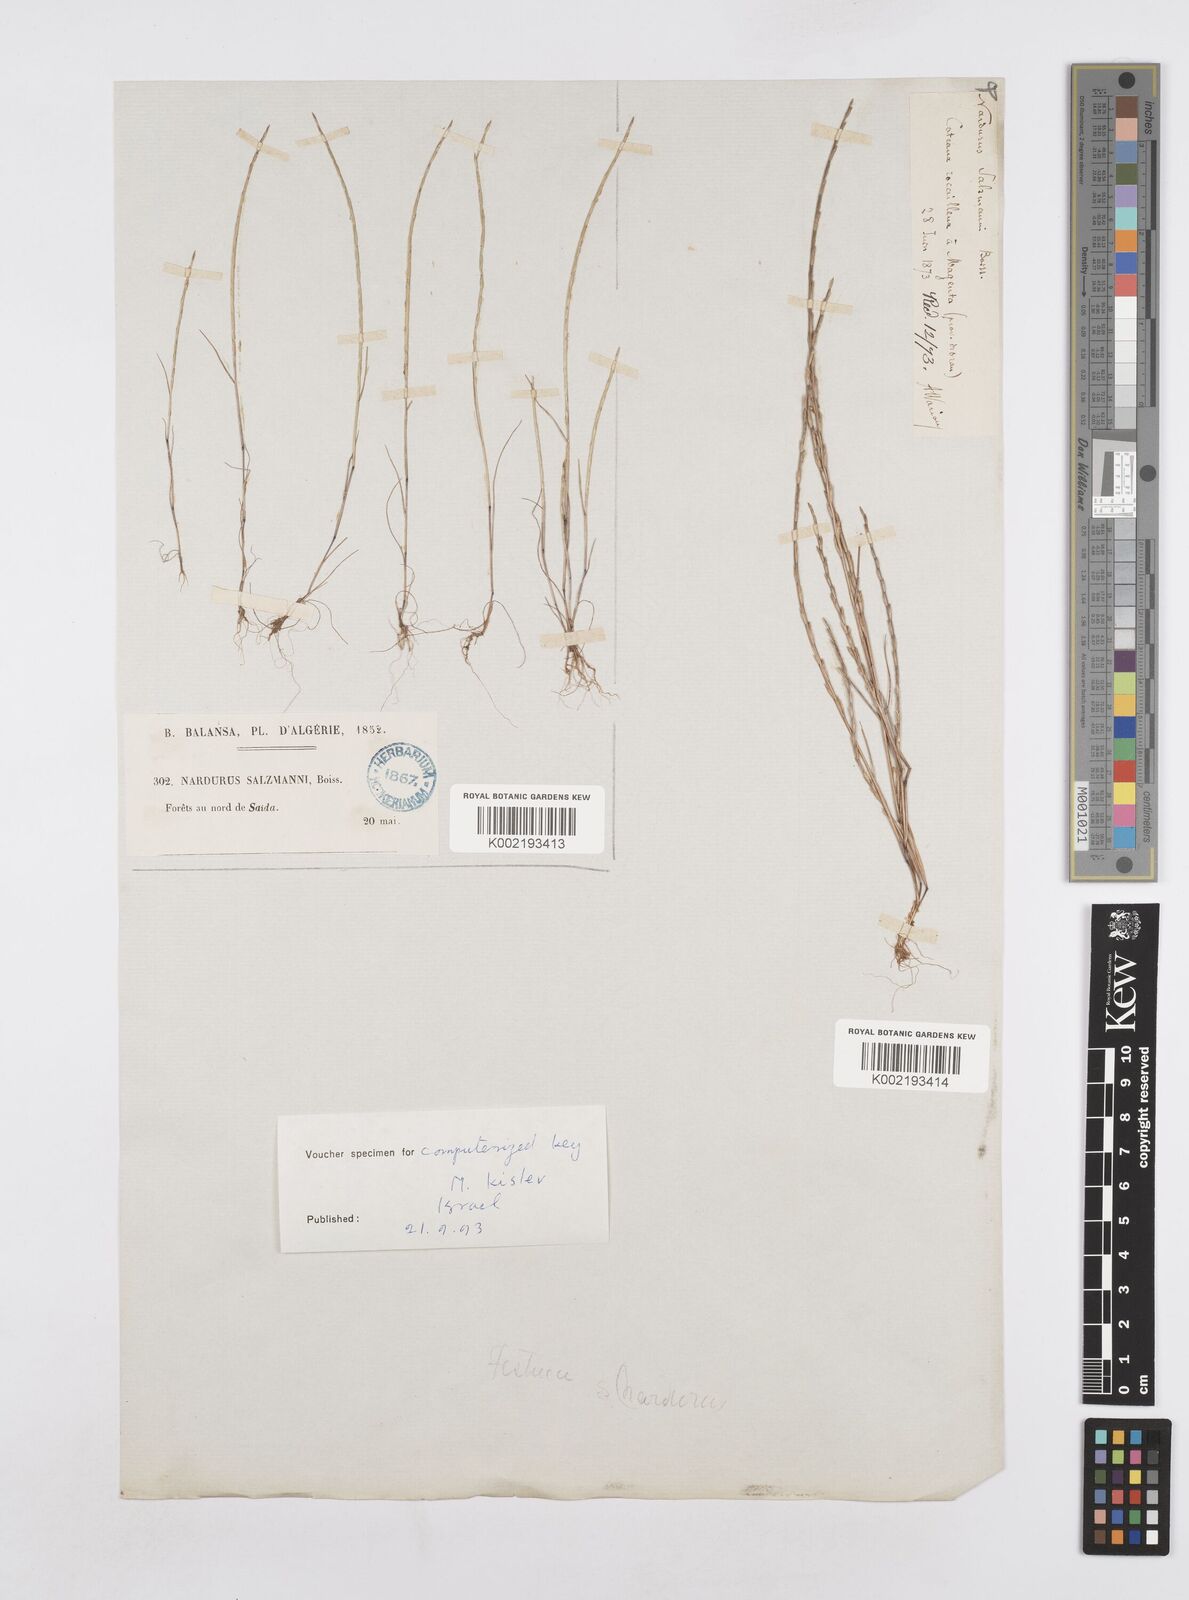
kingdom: Plantae
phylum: Tracheophyta
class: Liliopsida
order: Poales
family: Poaceae
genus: Festuca
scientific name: Festuca salzmannii
